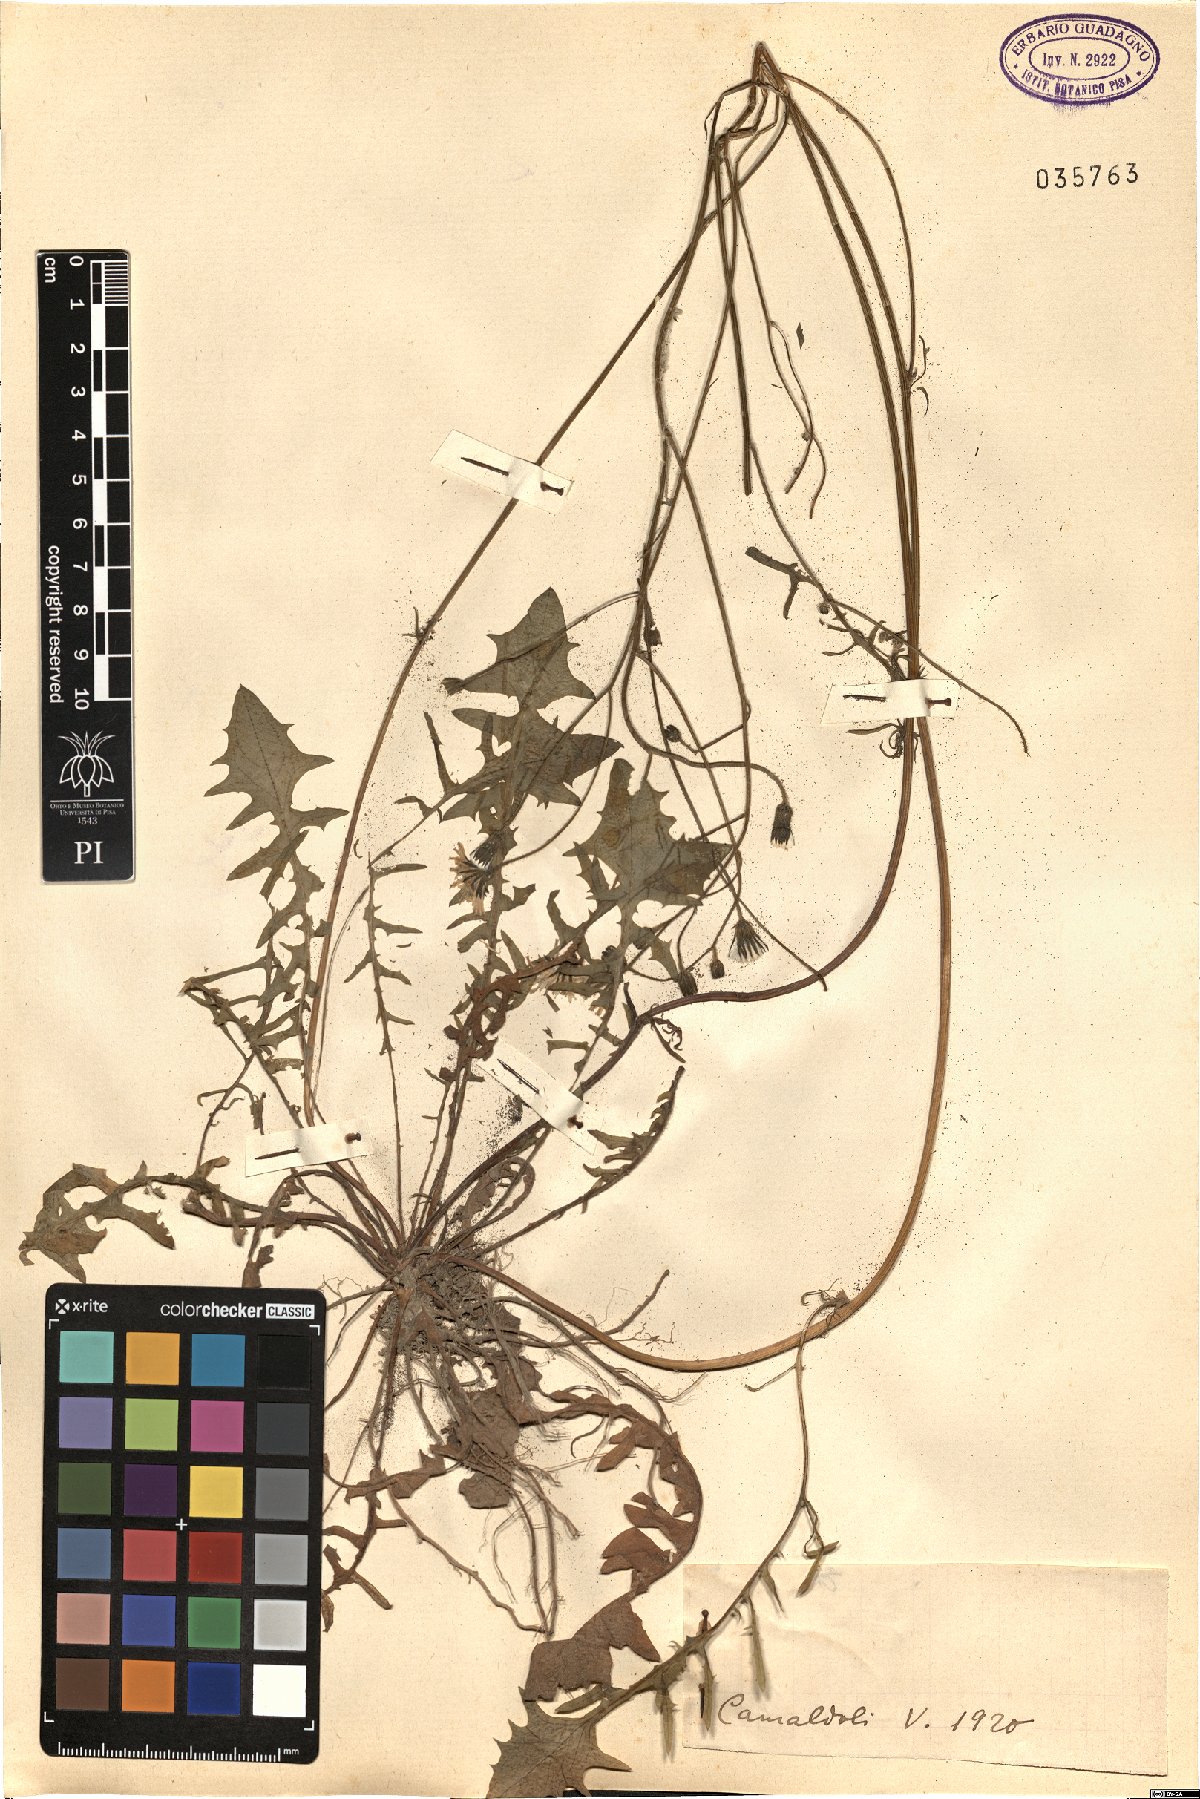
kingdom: Plantae
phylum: Tracheophyta
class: Magnoliopsida
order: Asterales
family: Asteraceae
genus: Crepis
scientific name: Crepis
